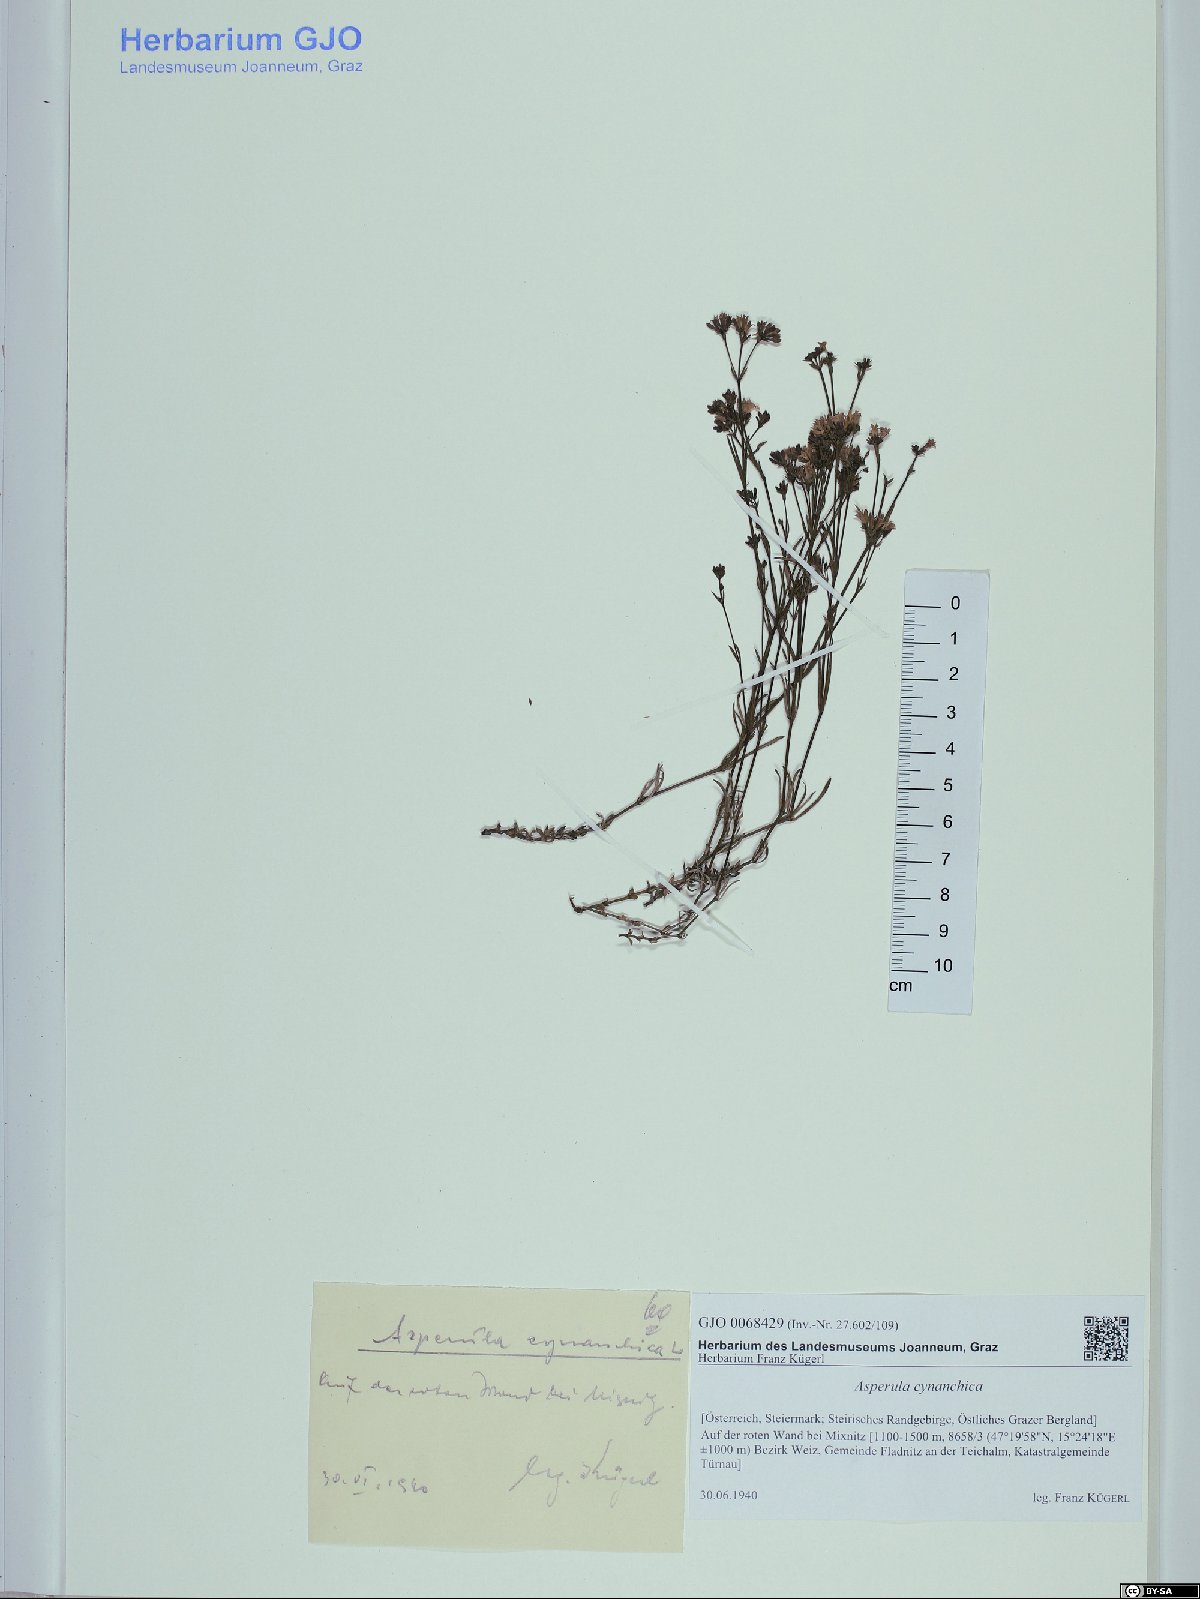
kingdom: Plantae
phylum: Tracheophyta
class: Magnoliopsida
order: Gentianales
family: Rubiaceae
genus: Cynanchica
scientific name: Cynanchica pyrenaica
